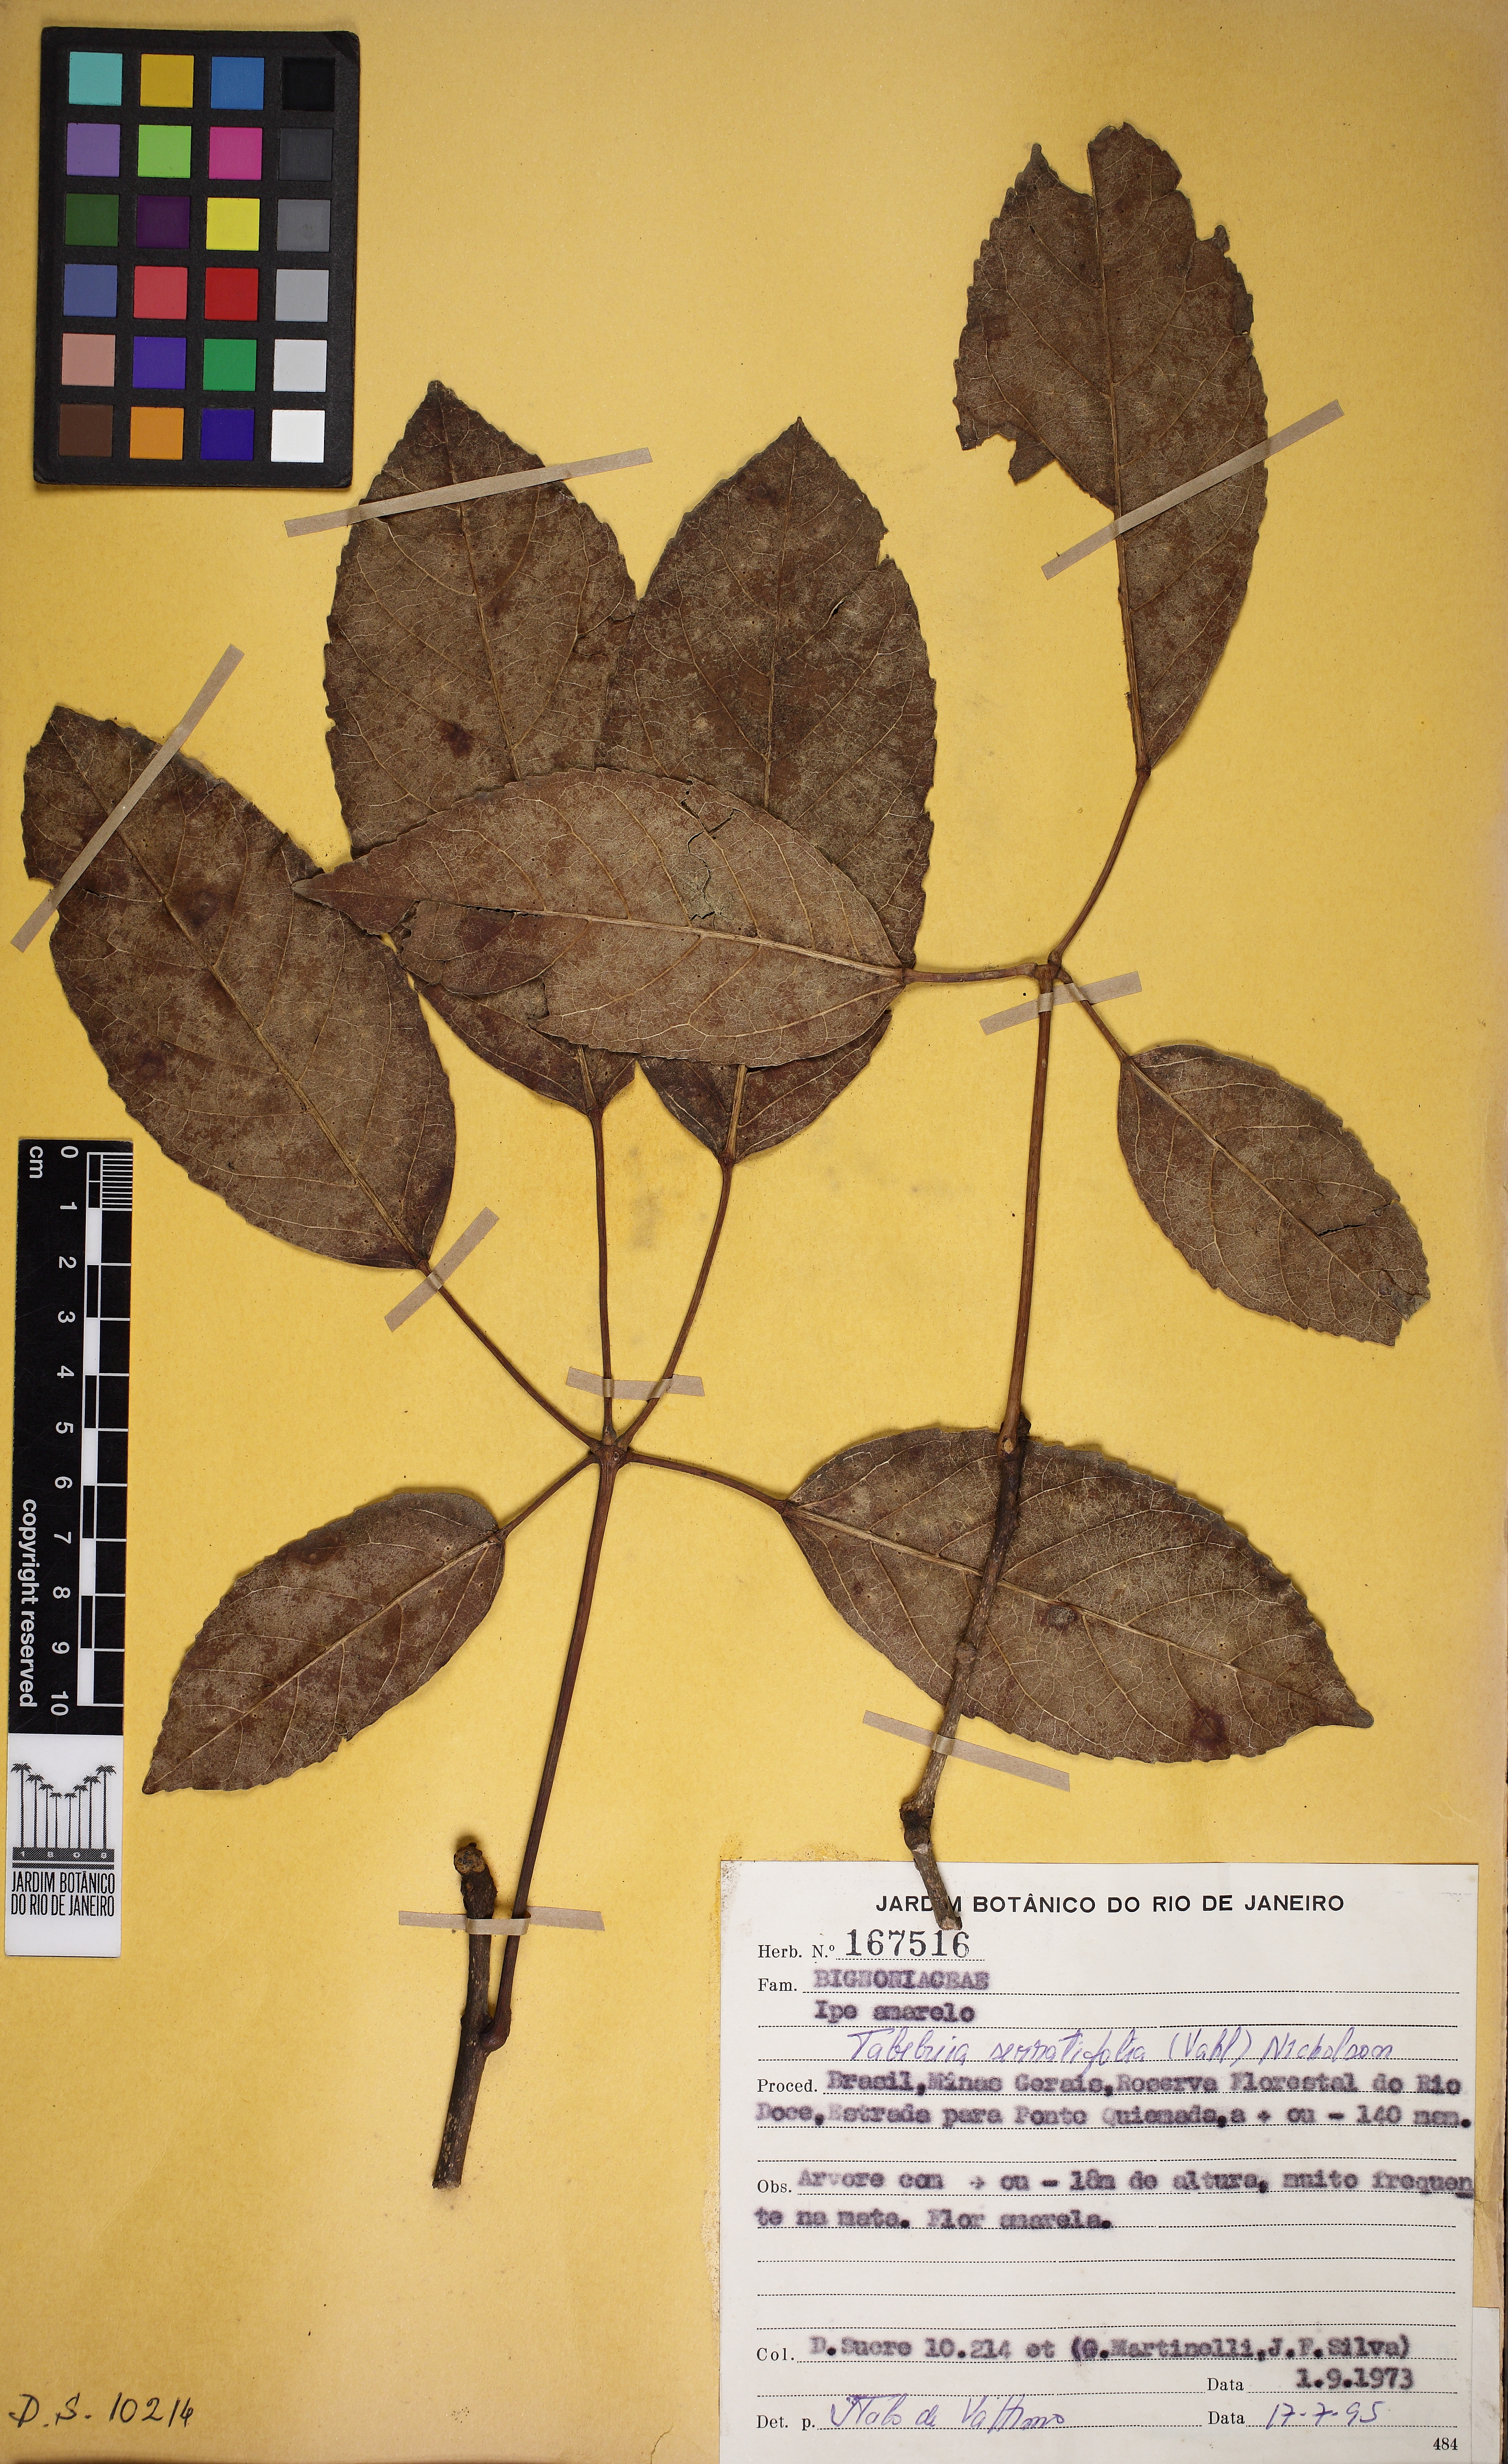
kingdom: Plantae
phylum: Tracheophyta
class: Magnoliopsida
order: Lamiales
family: Bignoniaceae
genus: Handroanthus
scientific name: Handroanthus serratifolius
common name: Yellow ipe
